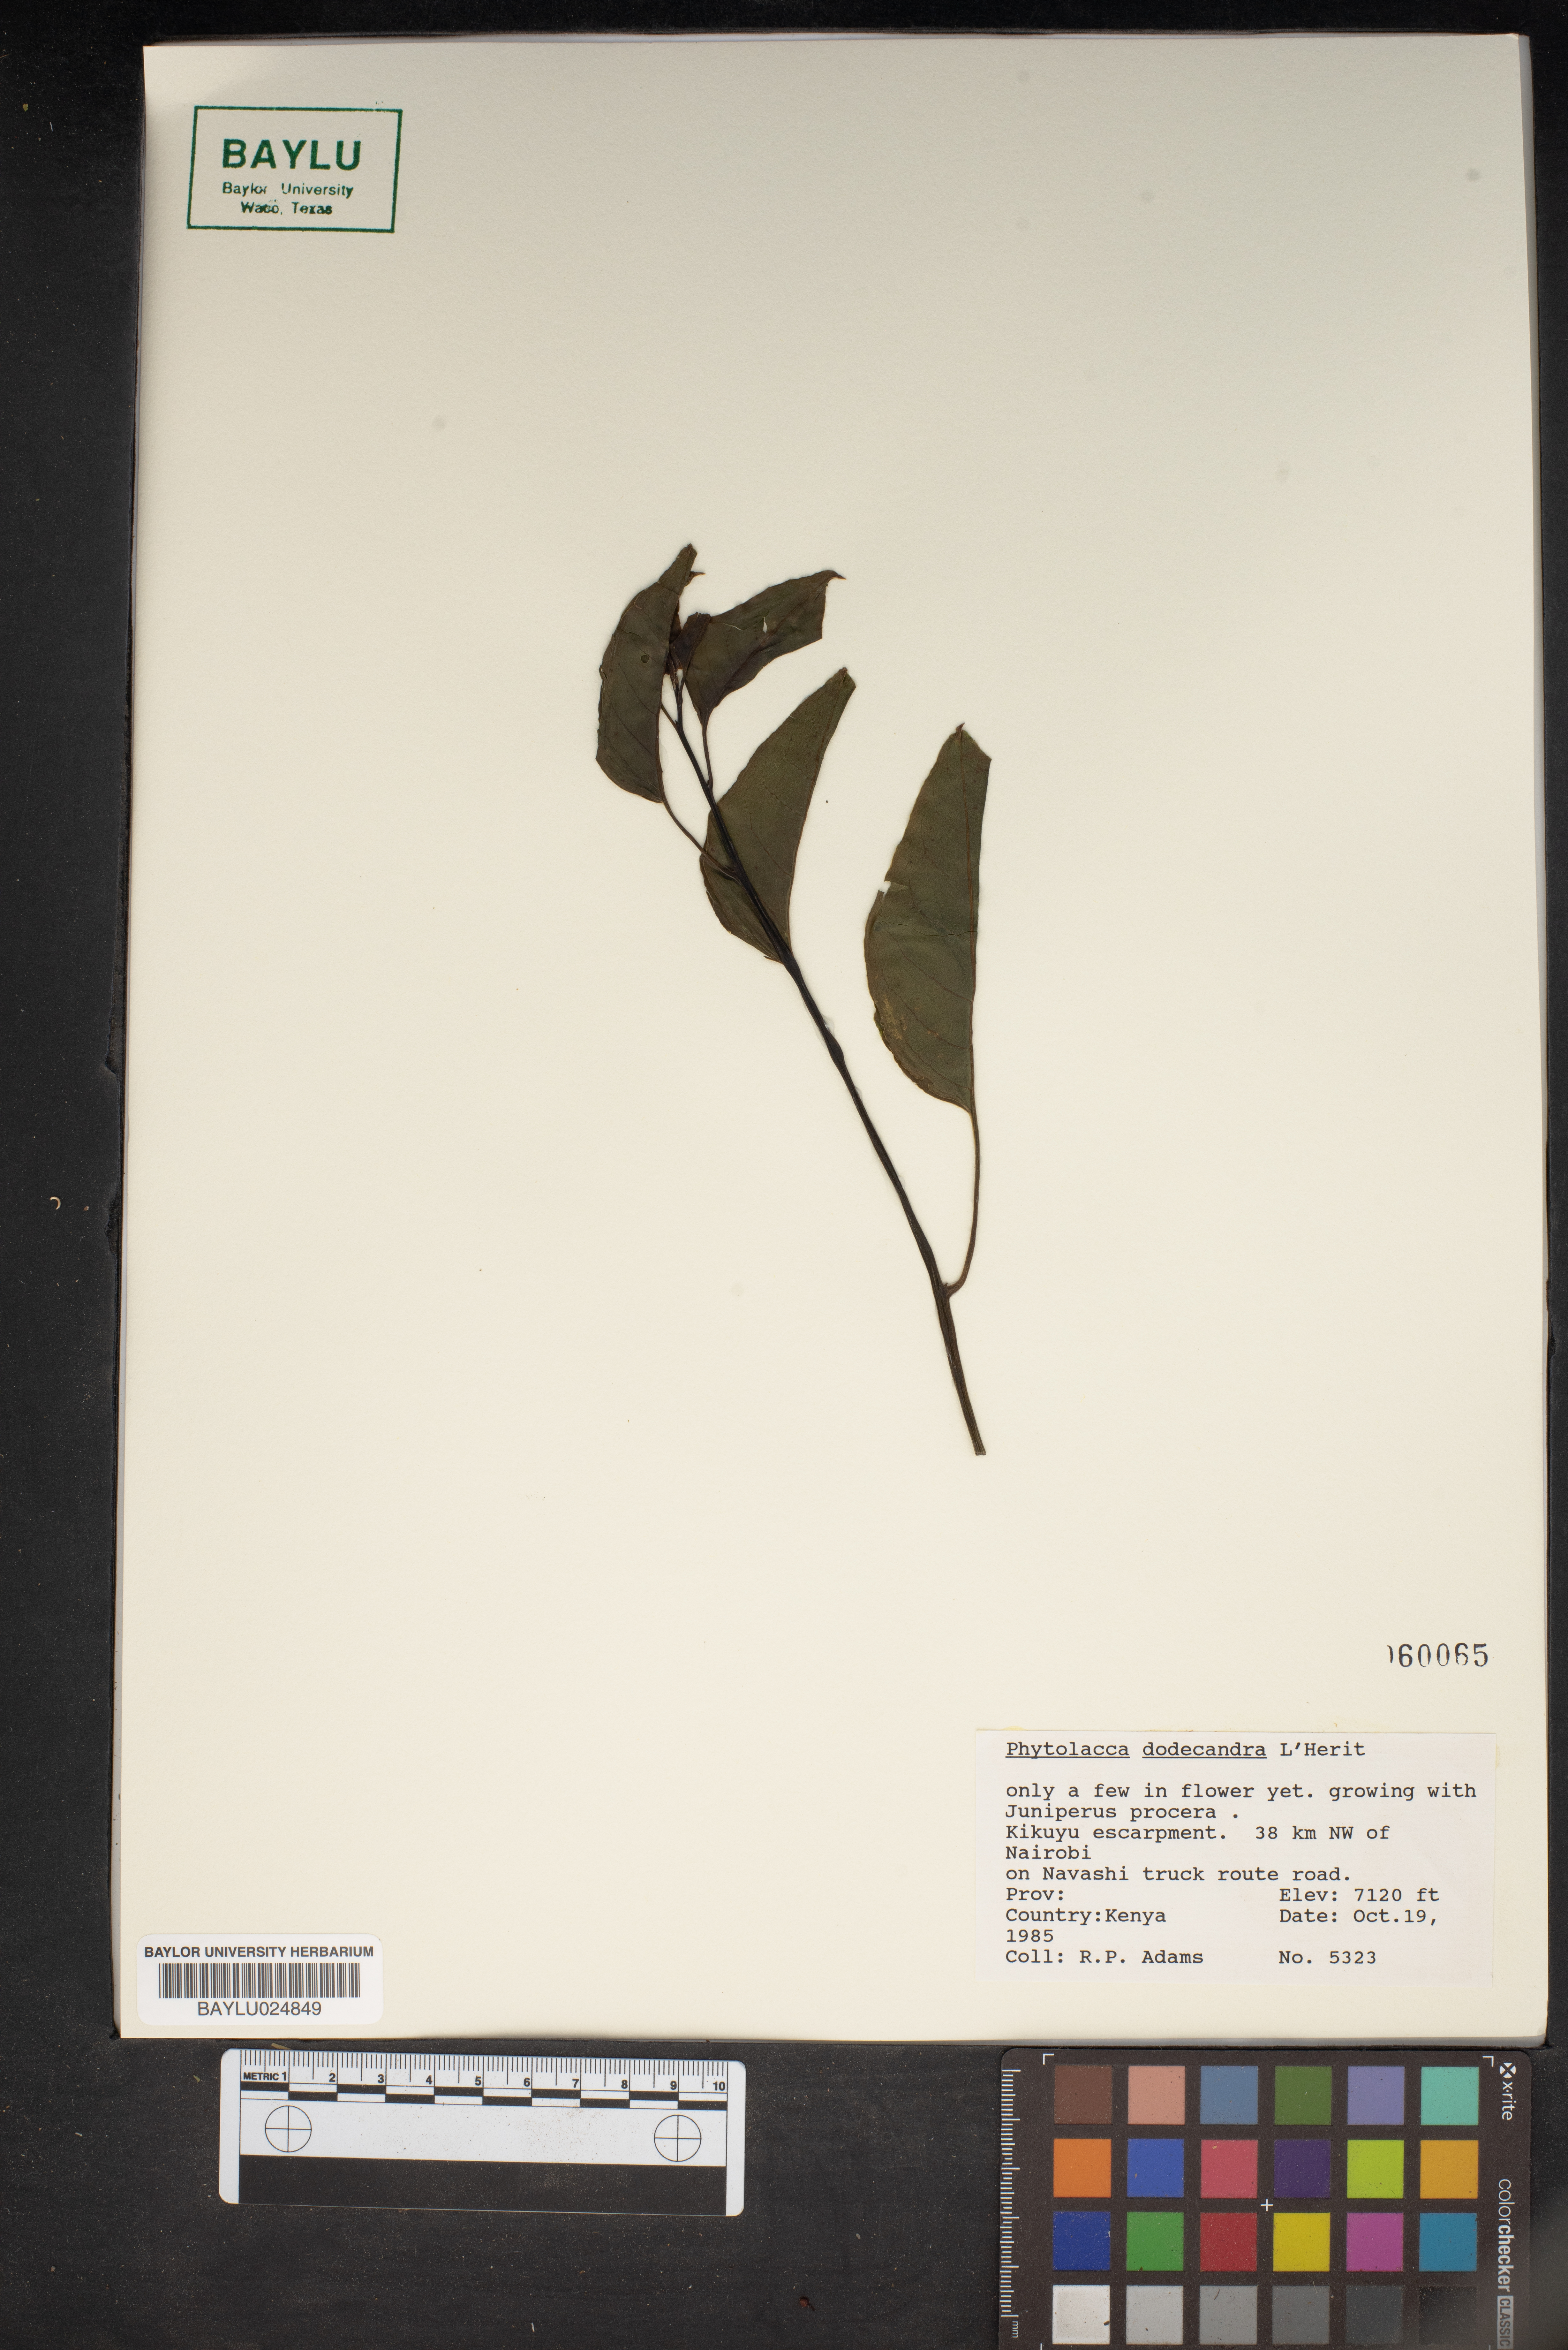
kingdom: Plantae
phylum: Tracheophyta
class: Magnoliopsida
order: Caryophyllales
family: Phytolaccaceae
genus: Phytolacca
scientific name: Phytolacca dodecandra
